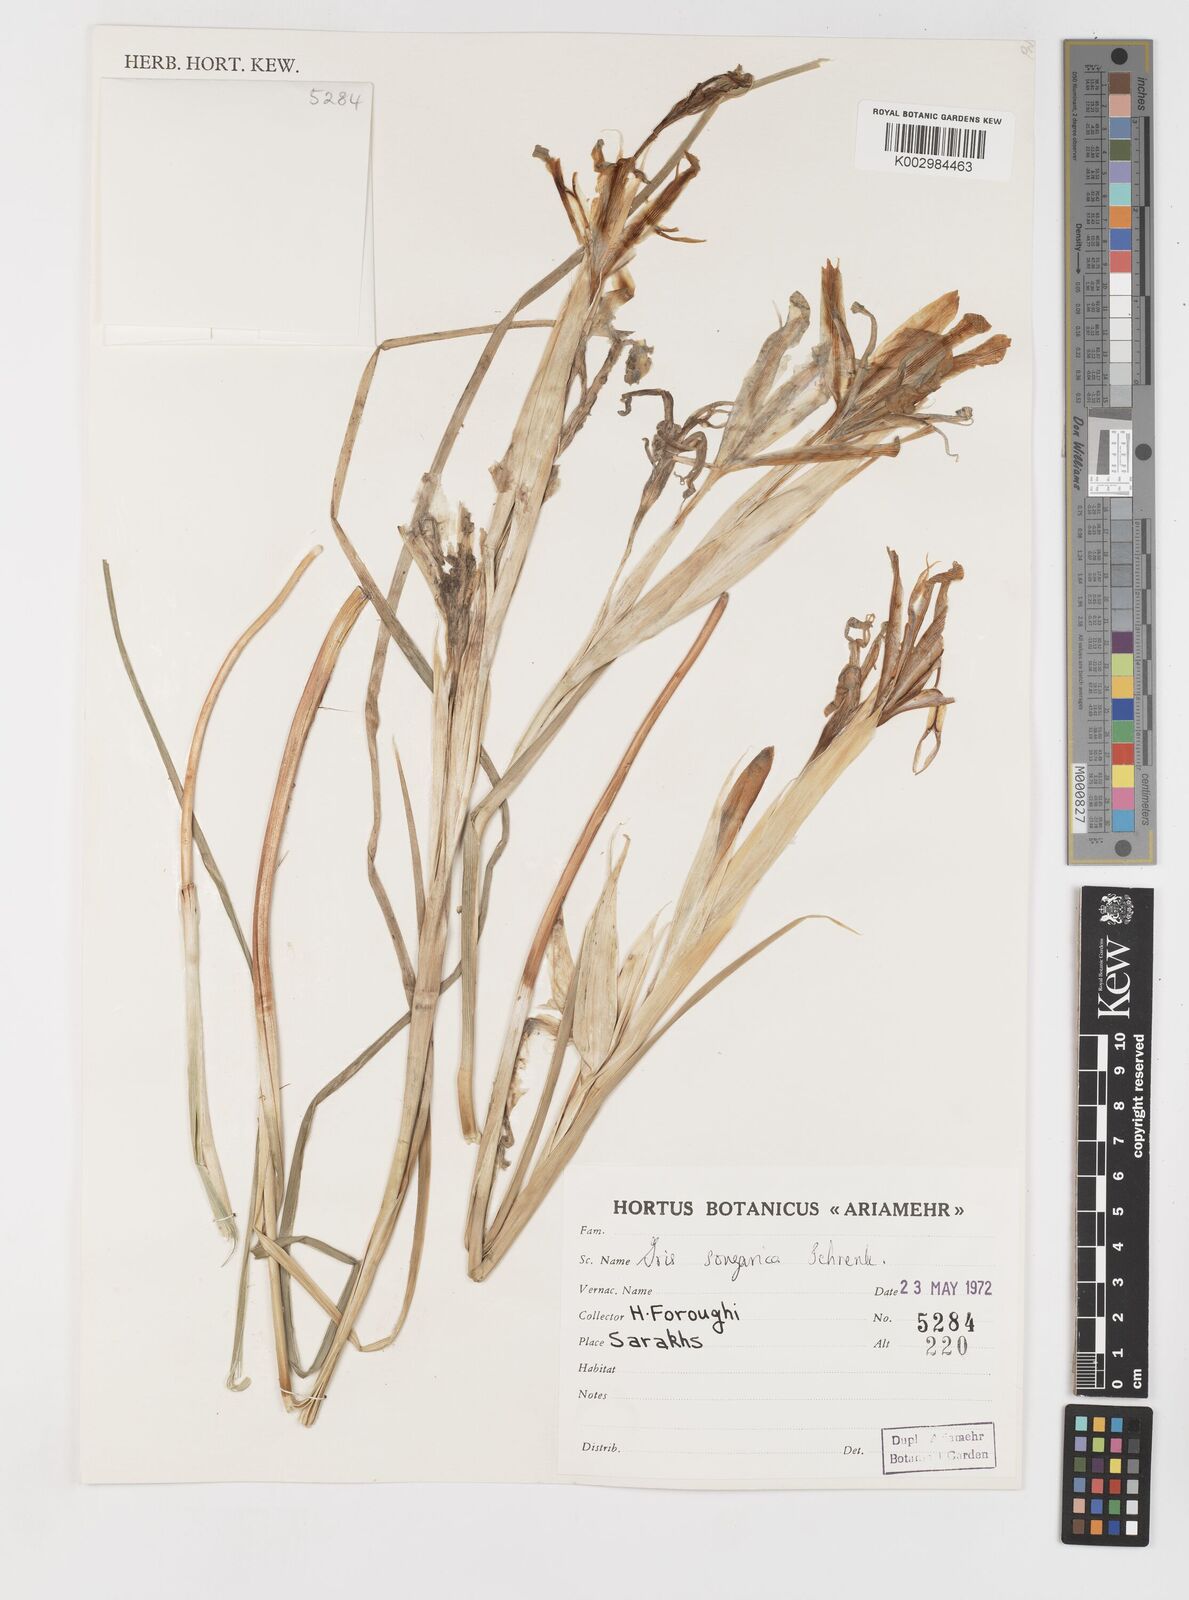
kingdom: Plantae
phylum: Tracheophyta
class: Liliopsida
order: Asparagales
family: Iridaceae
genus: Iris
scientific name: Iris songarica
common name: Songar iris
